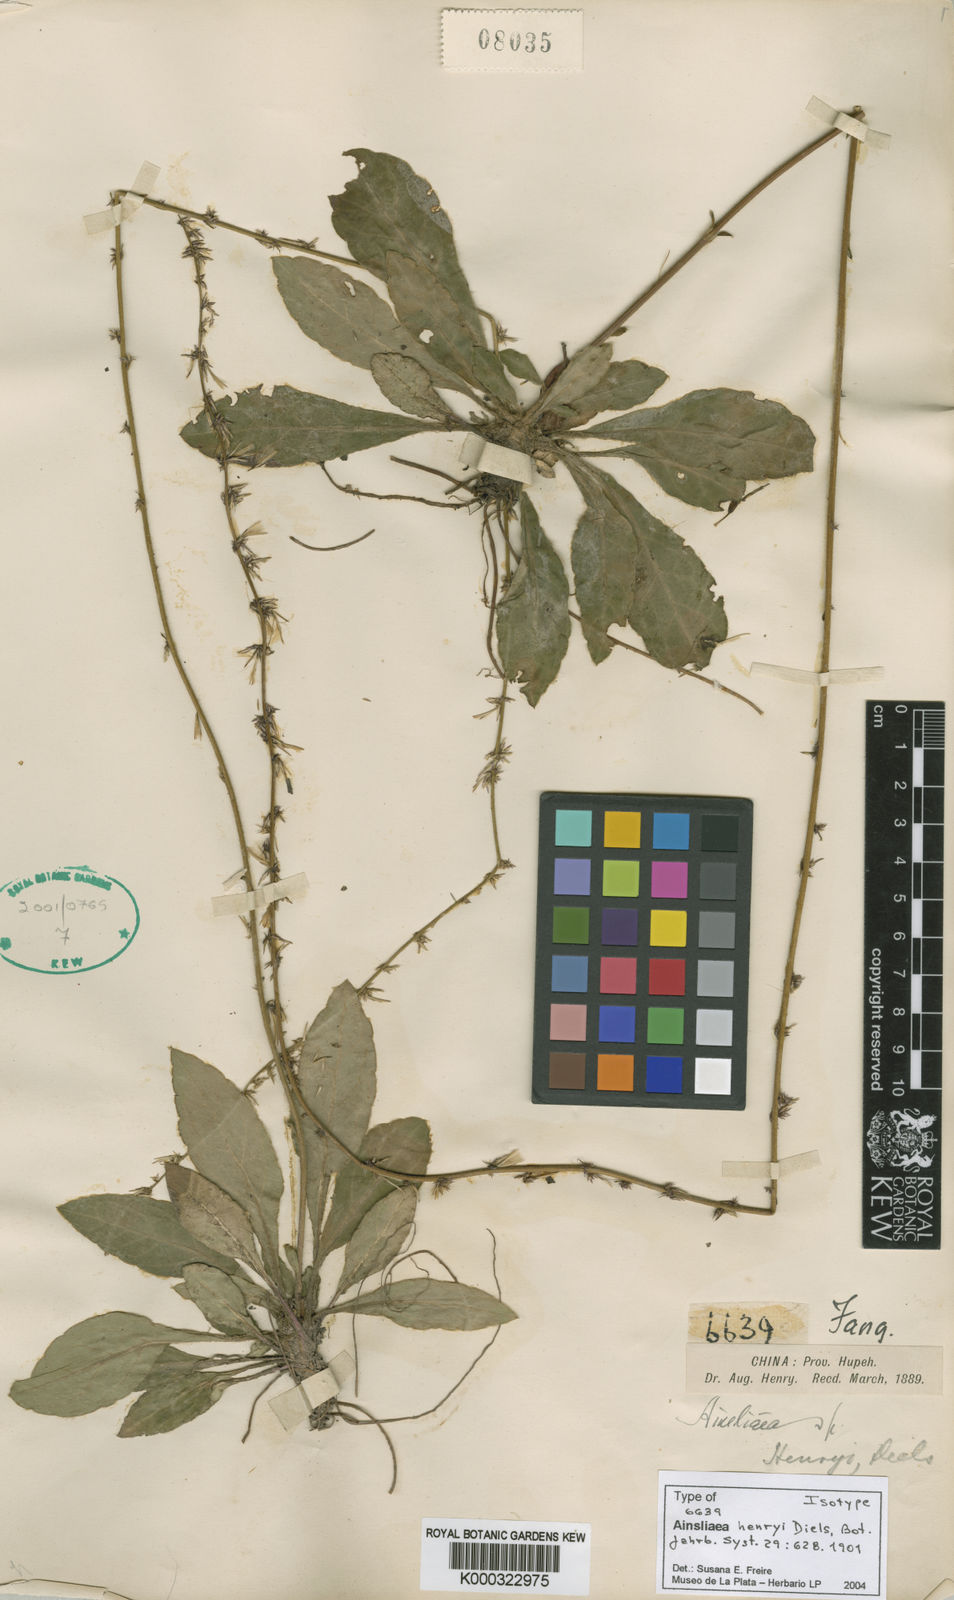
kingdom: Plantae
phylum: Tracheophyta
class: Magnoliopsida
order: Asterales
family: Asteraceae
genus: Ainsliaea
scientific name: Ainsliaea henryi
